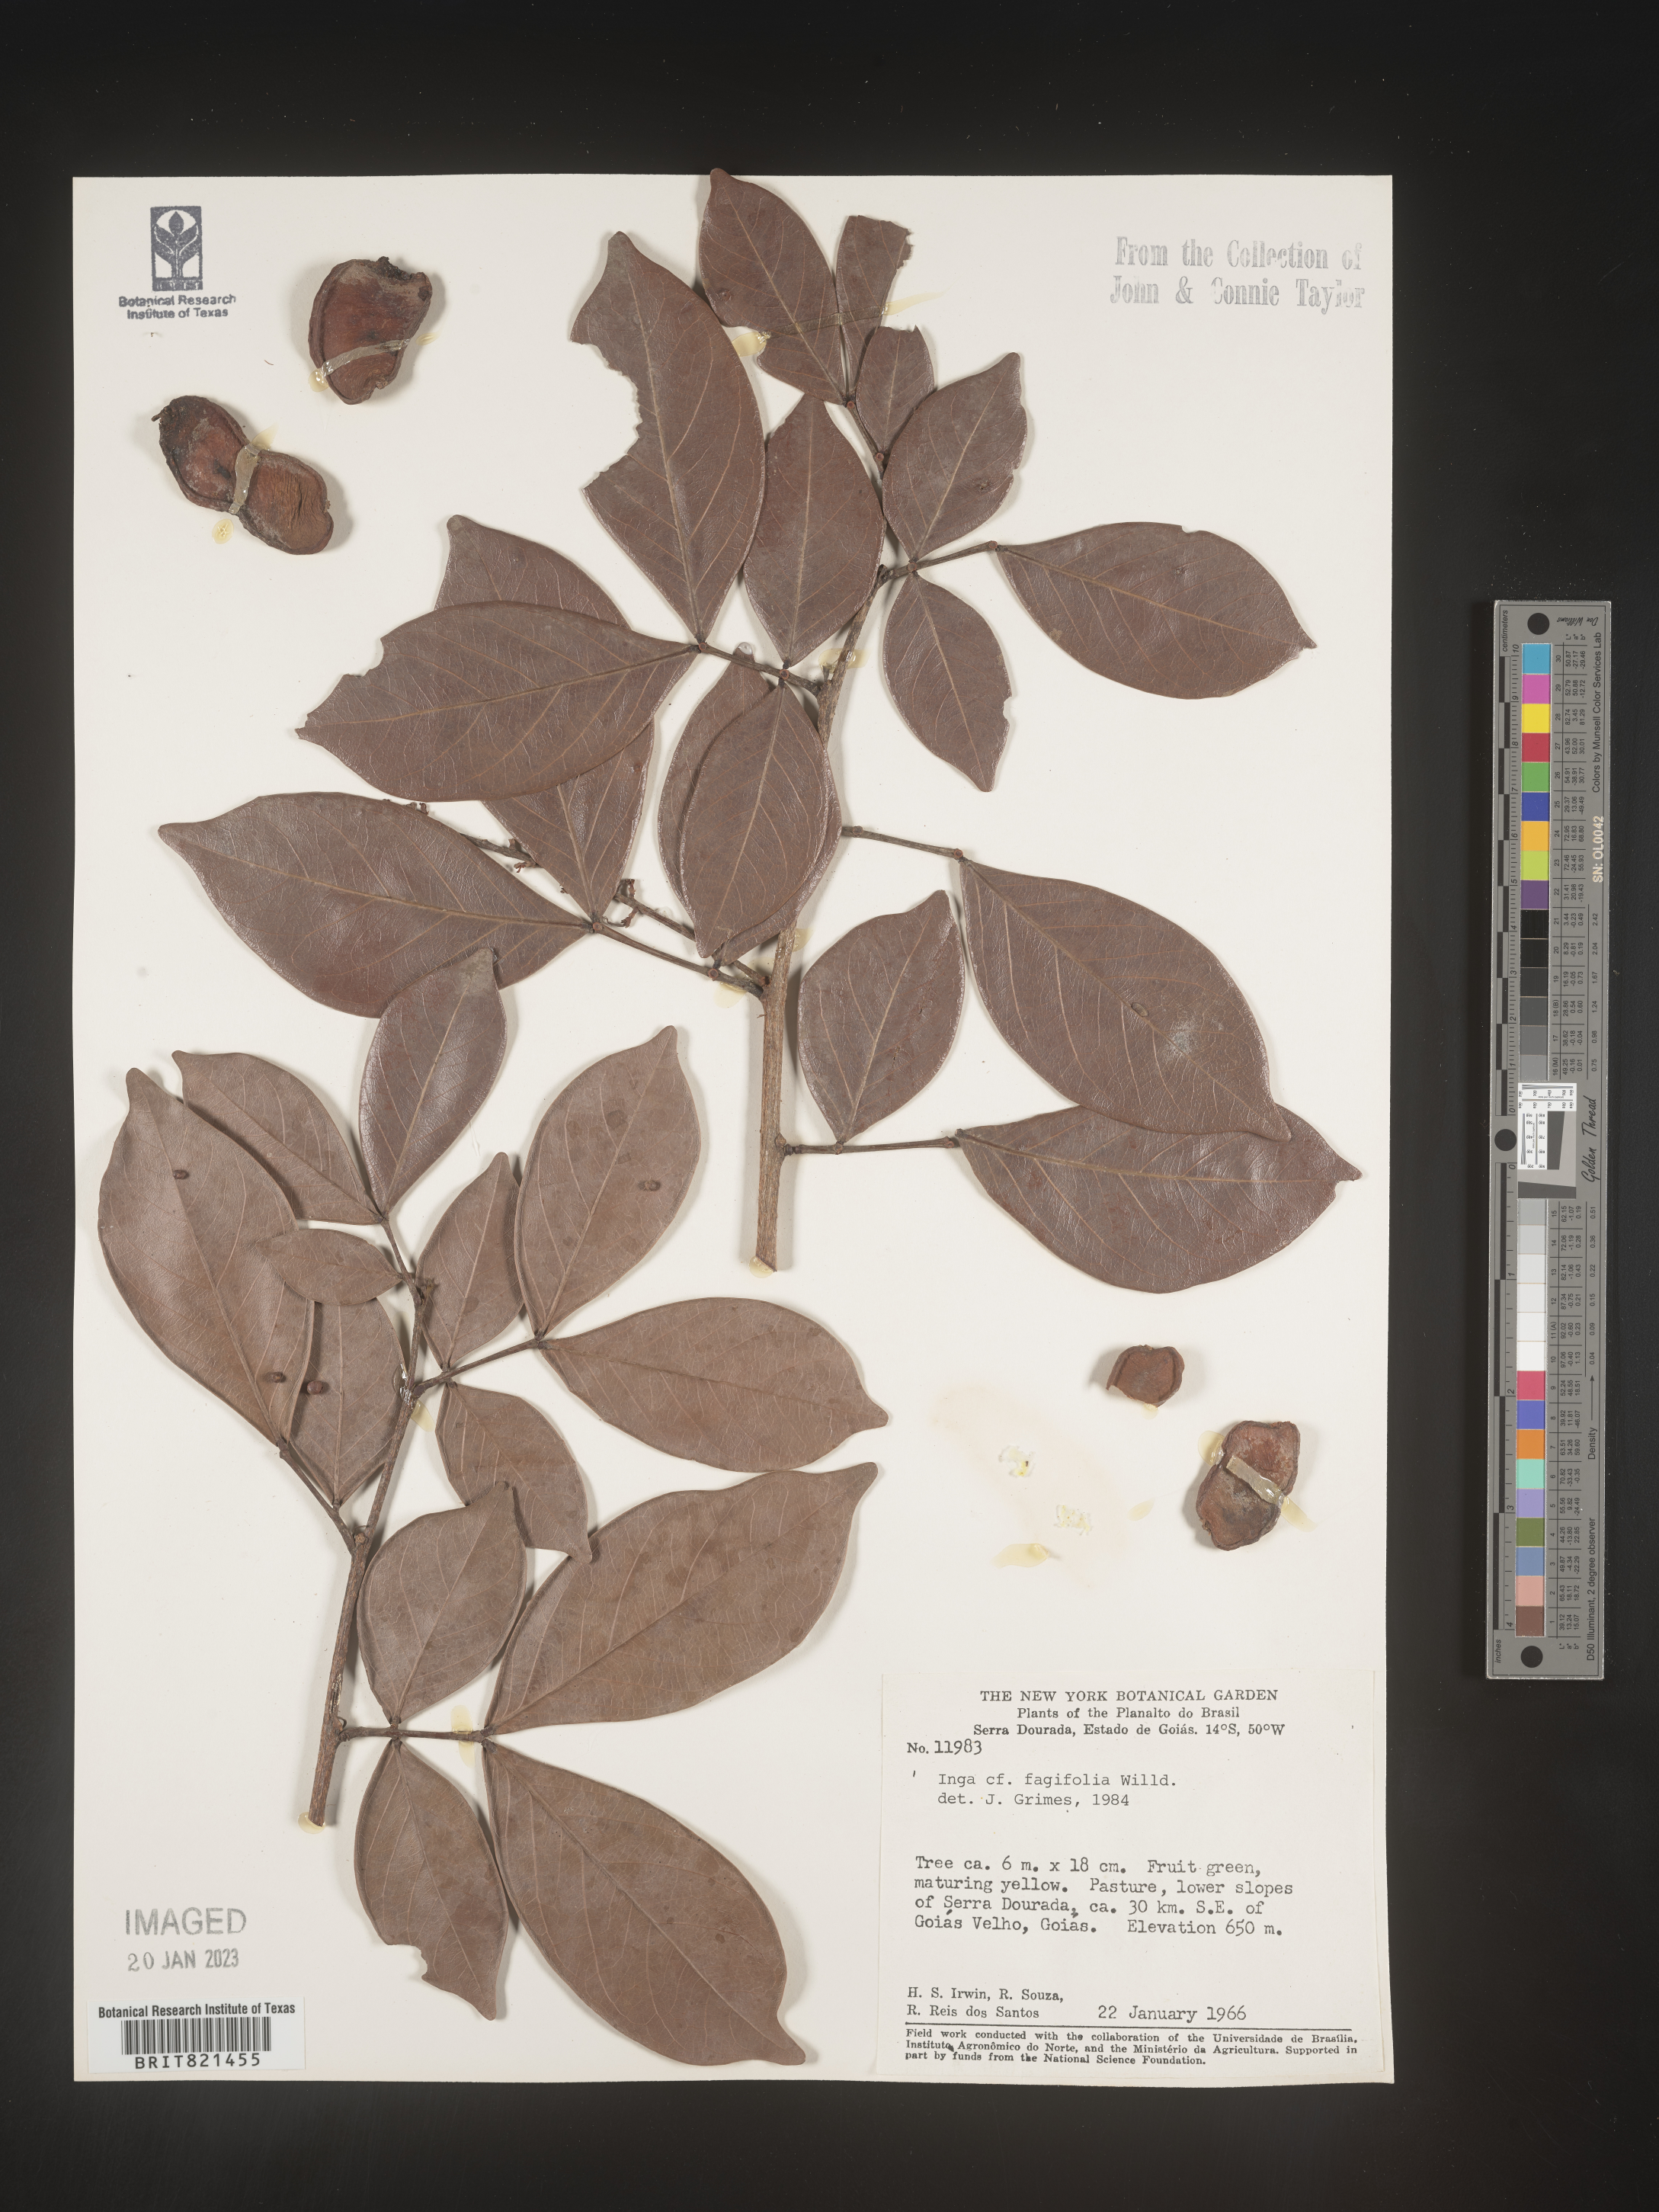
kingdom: Plantae
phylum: Tracheophyta
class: Magnoliopsida
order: Fabales
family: Fabaceae
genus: Inga
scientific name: Inga
